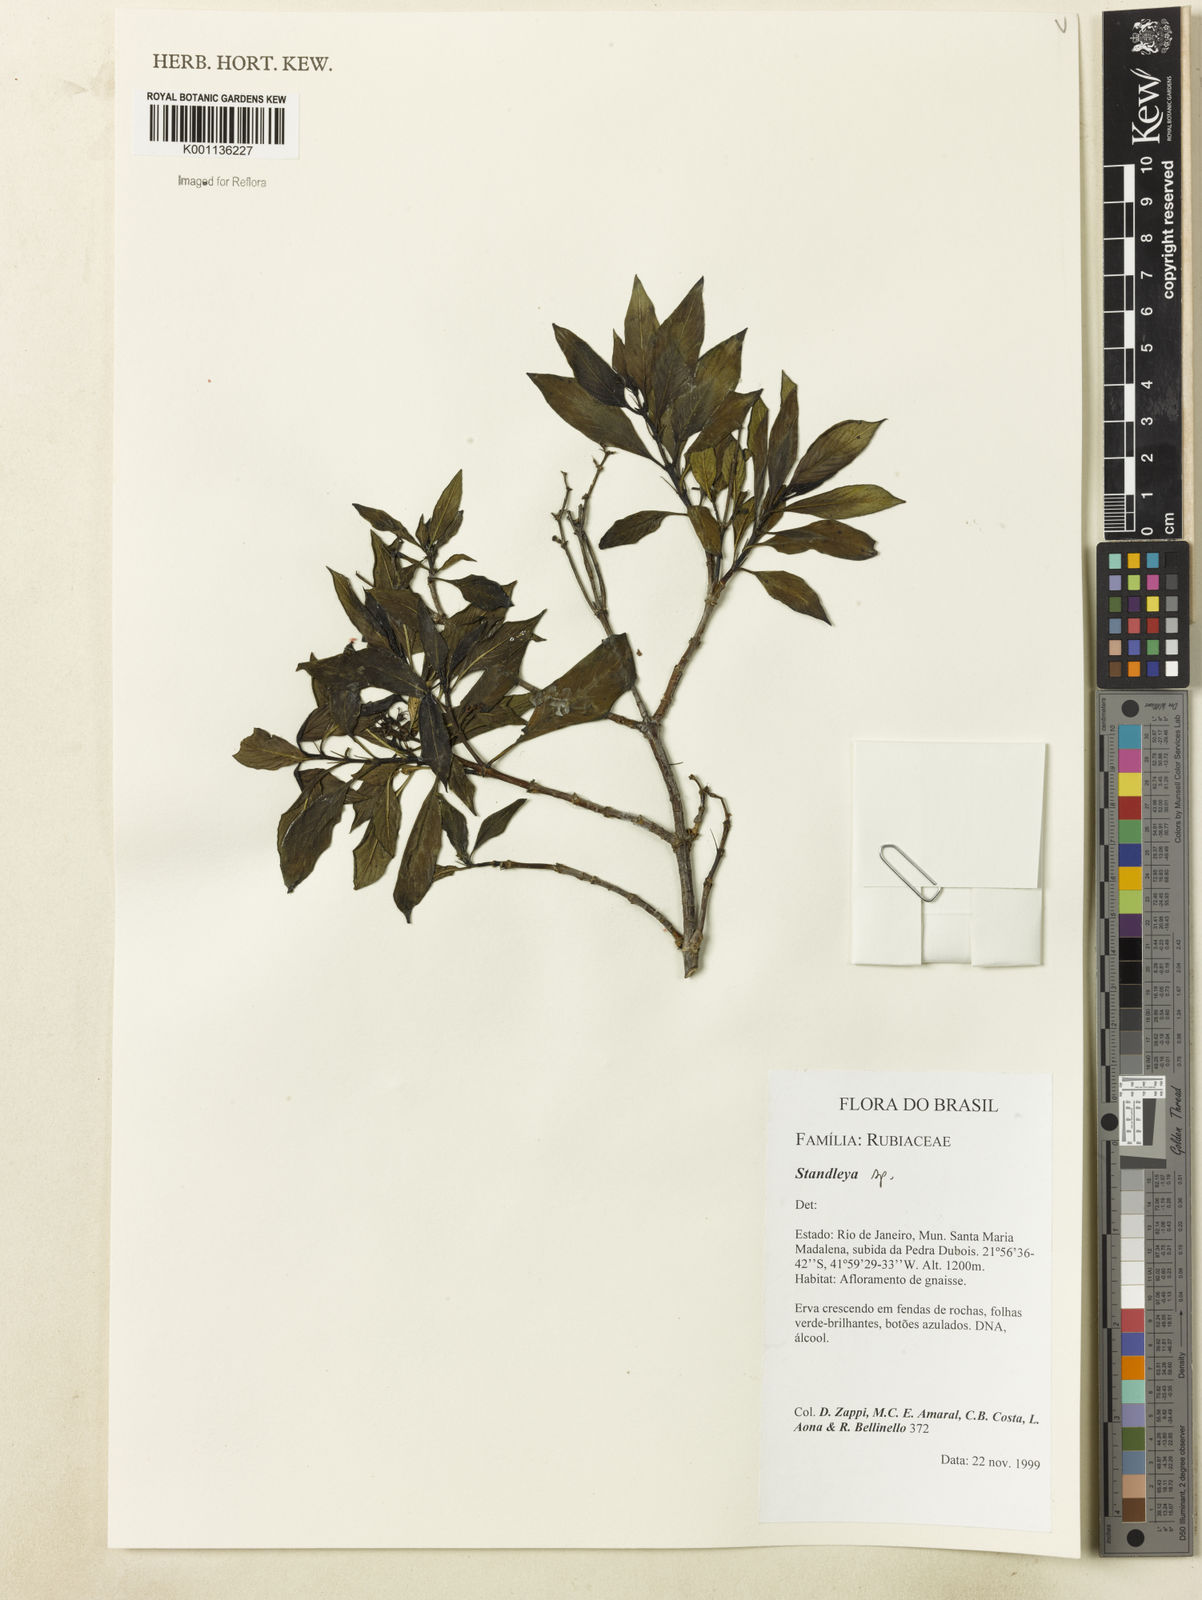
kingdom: Plantae
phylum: Tracheophyta
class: Magnoliopsida
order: Gentianales
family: Rubiaceae
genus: Standleya
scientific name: Standleya
